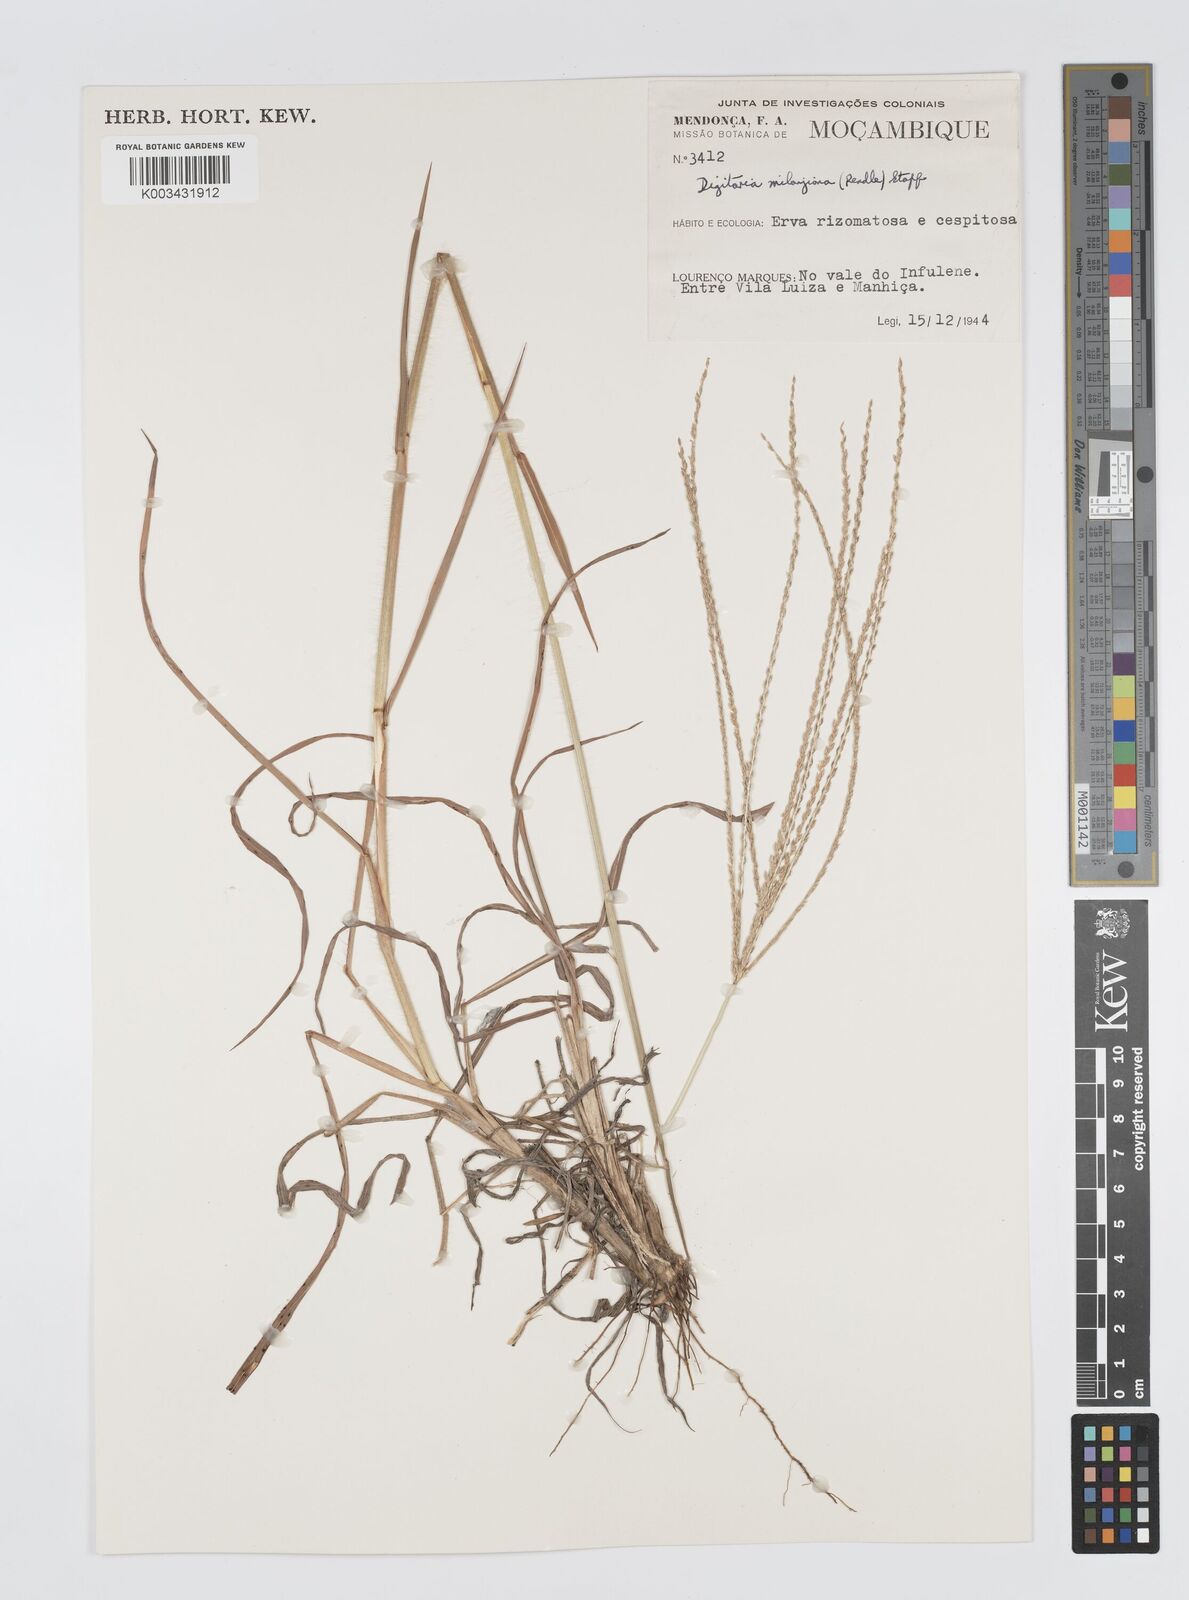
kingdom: Plantae
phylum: Tracheophyta
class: Liliopsida
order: Poales
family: Poaceae
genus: Digitaria
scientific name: Digitaria milanjiana
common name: Madagascar crabgrass
